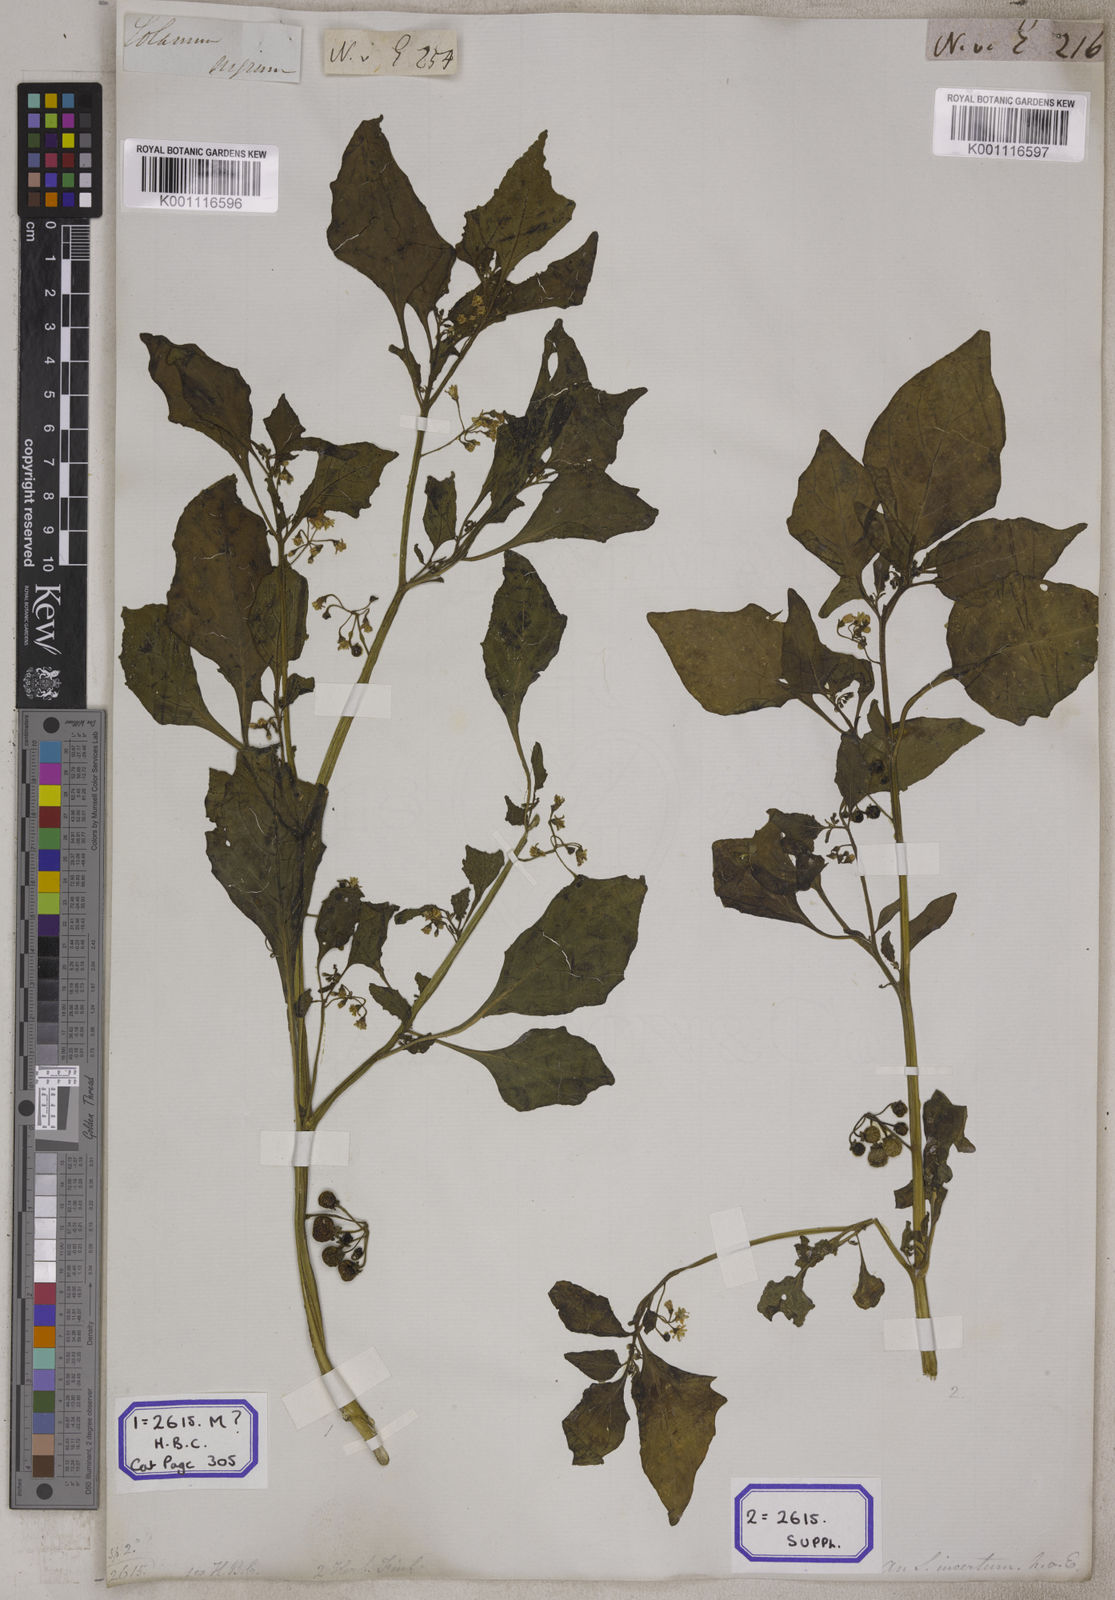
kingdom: Plantae
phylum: Tracheophyta
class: Magnoliopsida
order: Solanales
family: Solanaceae
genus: Solanum
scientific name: Solanum nigrum
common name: Black nightshade
